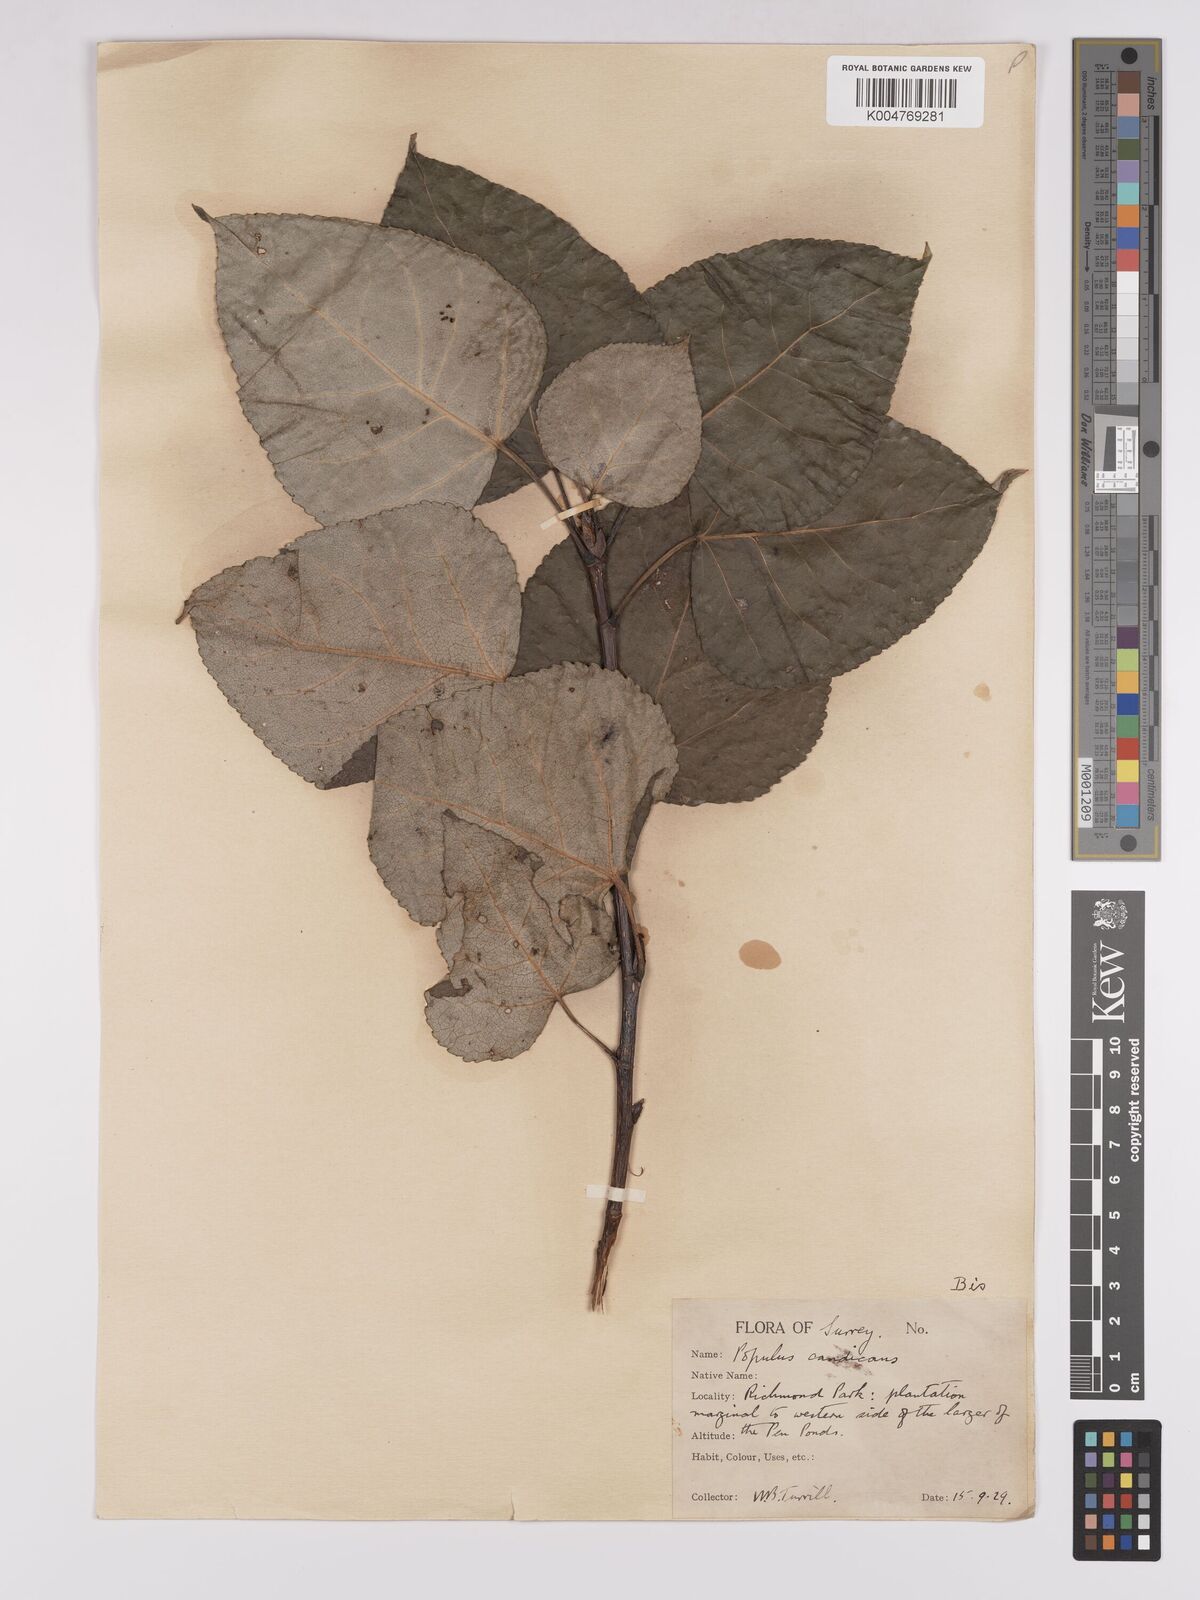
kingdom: Plantae
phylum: Tracheophyta
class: Magnoliopsida
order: Malpighiales
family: Salicaceae
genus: Populus
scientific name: Populus balsamifera
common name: Balsam poplar
